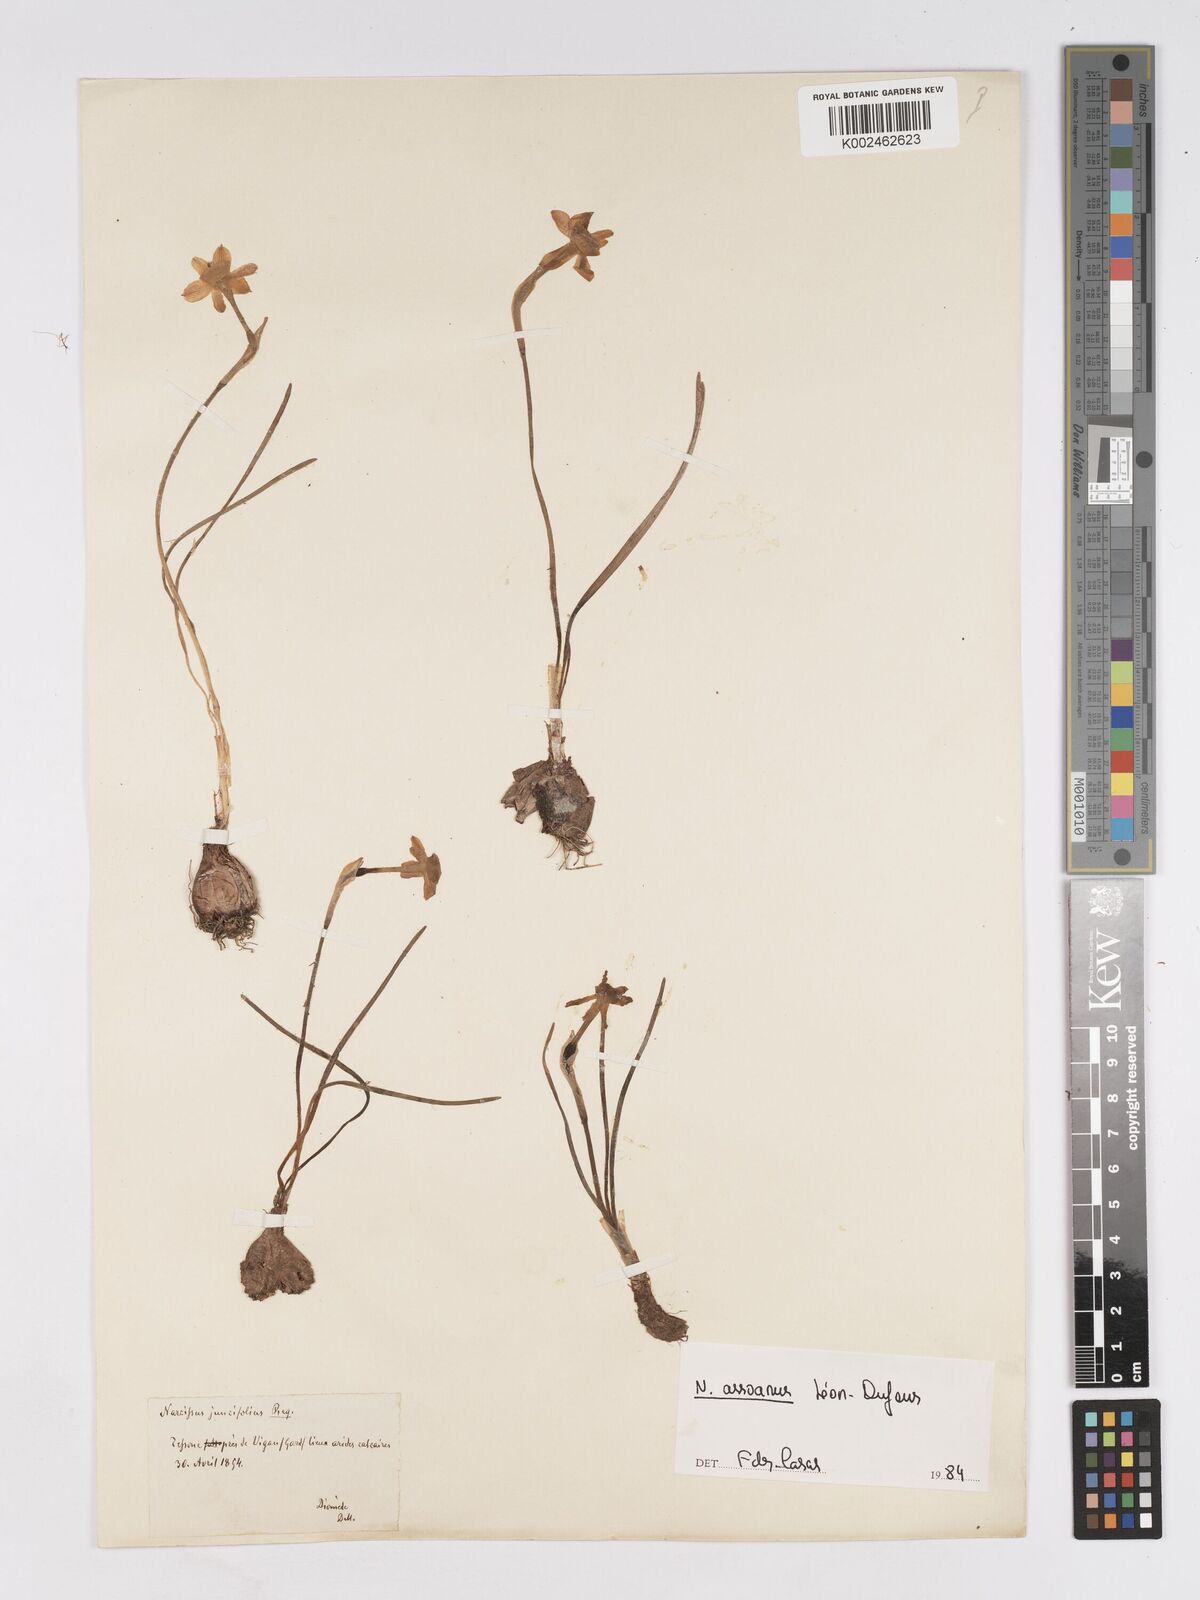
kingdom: Plantae
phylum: Tracheophyta
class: Liliopsida
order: Asparagales
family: Amaryllidaceae
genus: Narcissus
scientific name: Narcissus assoanus
